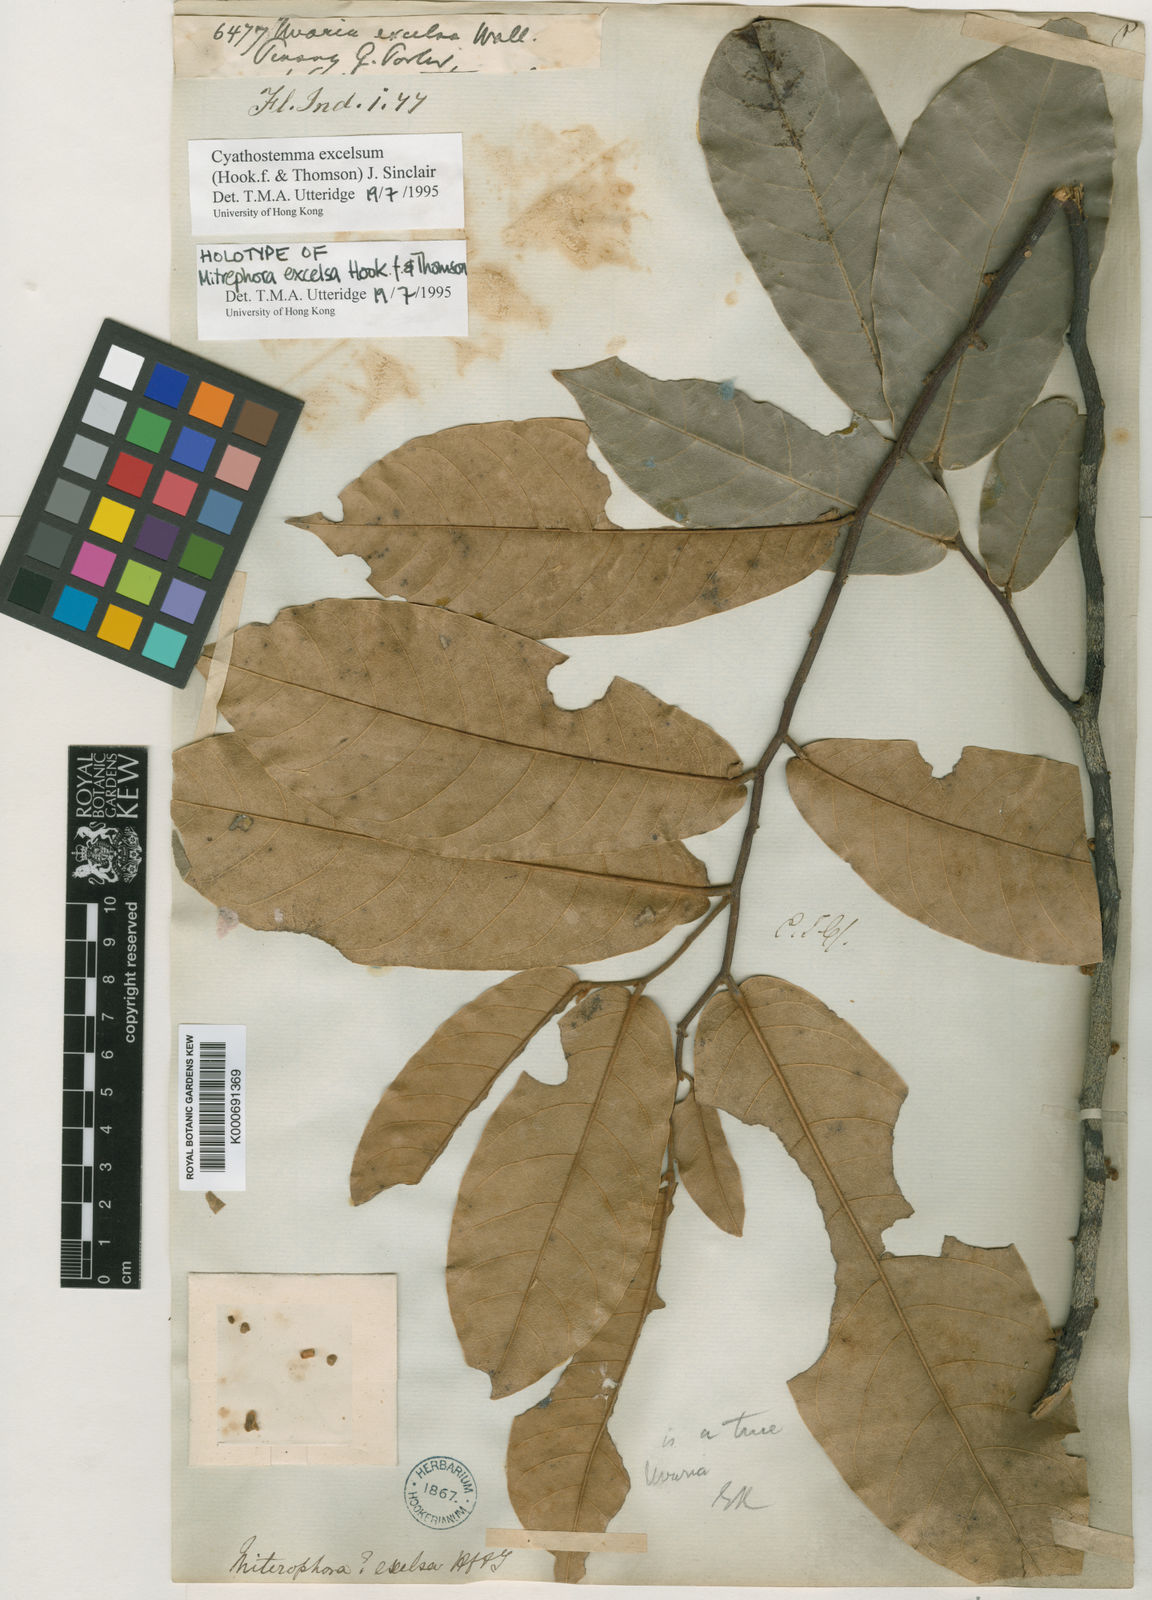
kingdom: Plantae
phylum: Tracheophyta
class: Magnoliopsida
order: Magnoliales
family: Annonaceae
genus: Uvaria
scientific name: Uvaria excelsa
